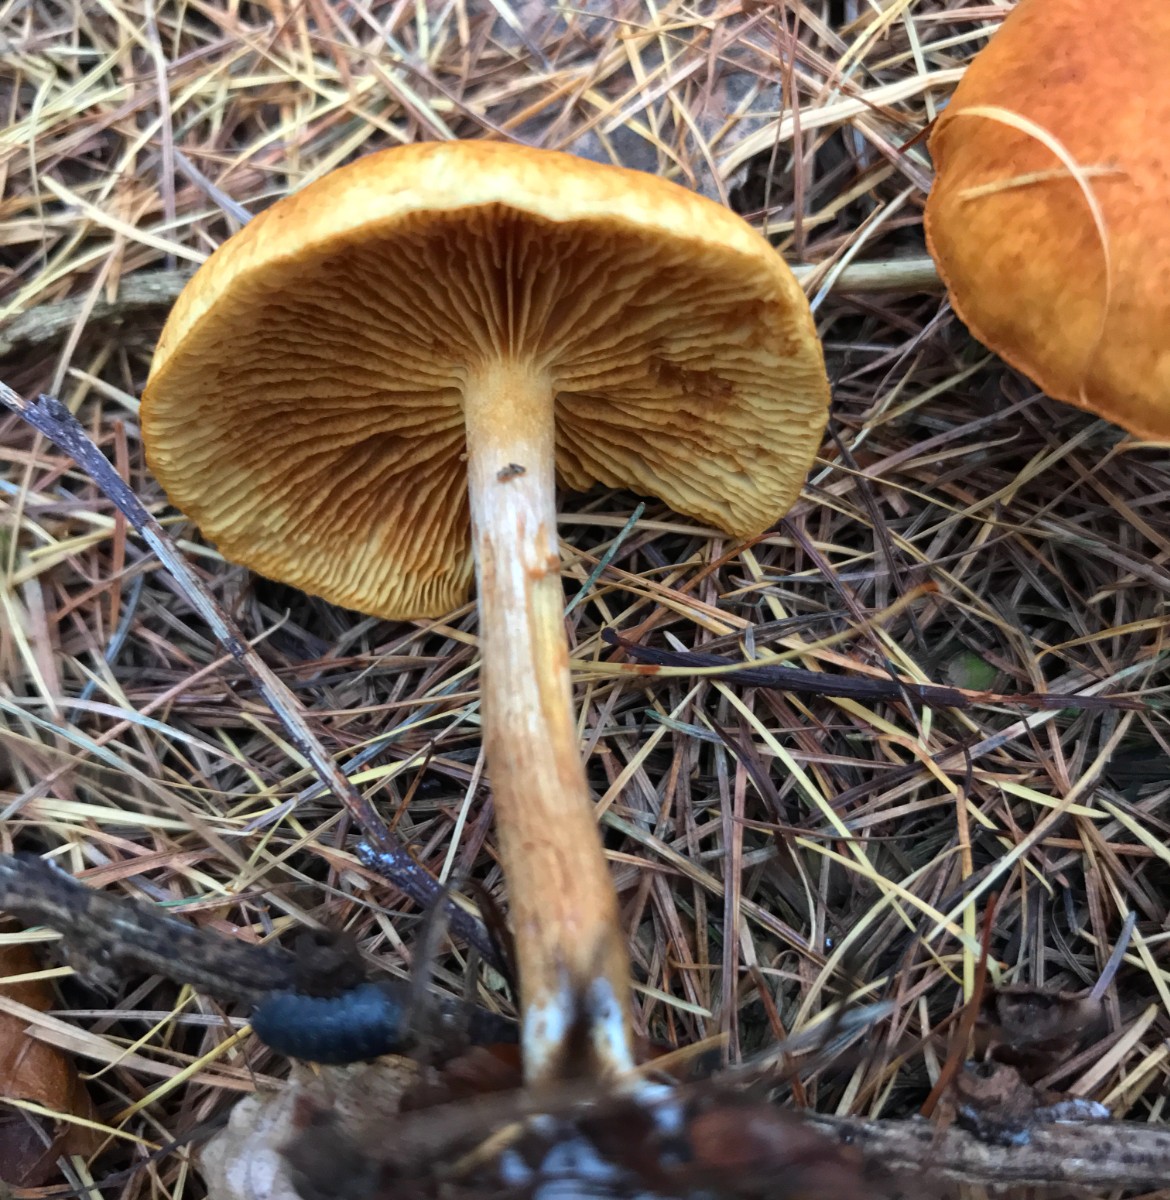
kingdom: Fungi
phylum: Basidiomycota
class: Agaricomycetes
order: Agaricales
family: Hymenogastraceae
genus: Gymnopilus
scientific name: Gymnopilus penetrans
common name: plettet flammehat
